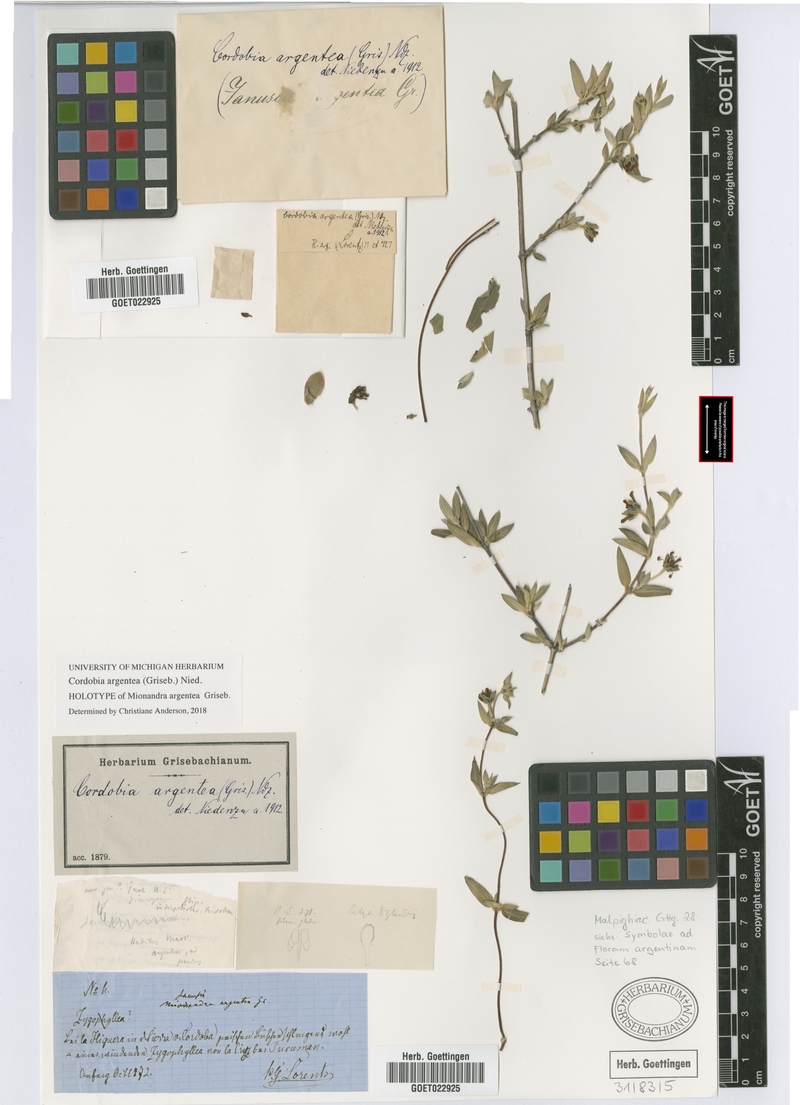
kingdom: Plantae
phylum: Tracheophyta
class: Magnoliopsida
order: Malpighiales
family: Malpighiaceae
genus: Cordobia
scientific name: Cordobia argentea
